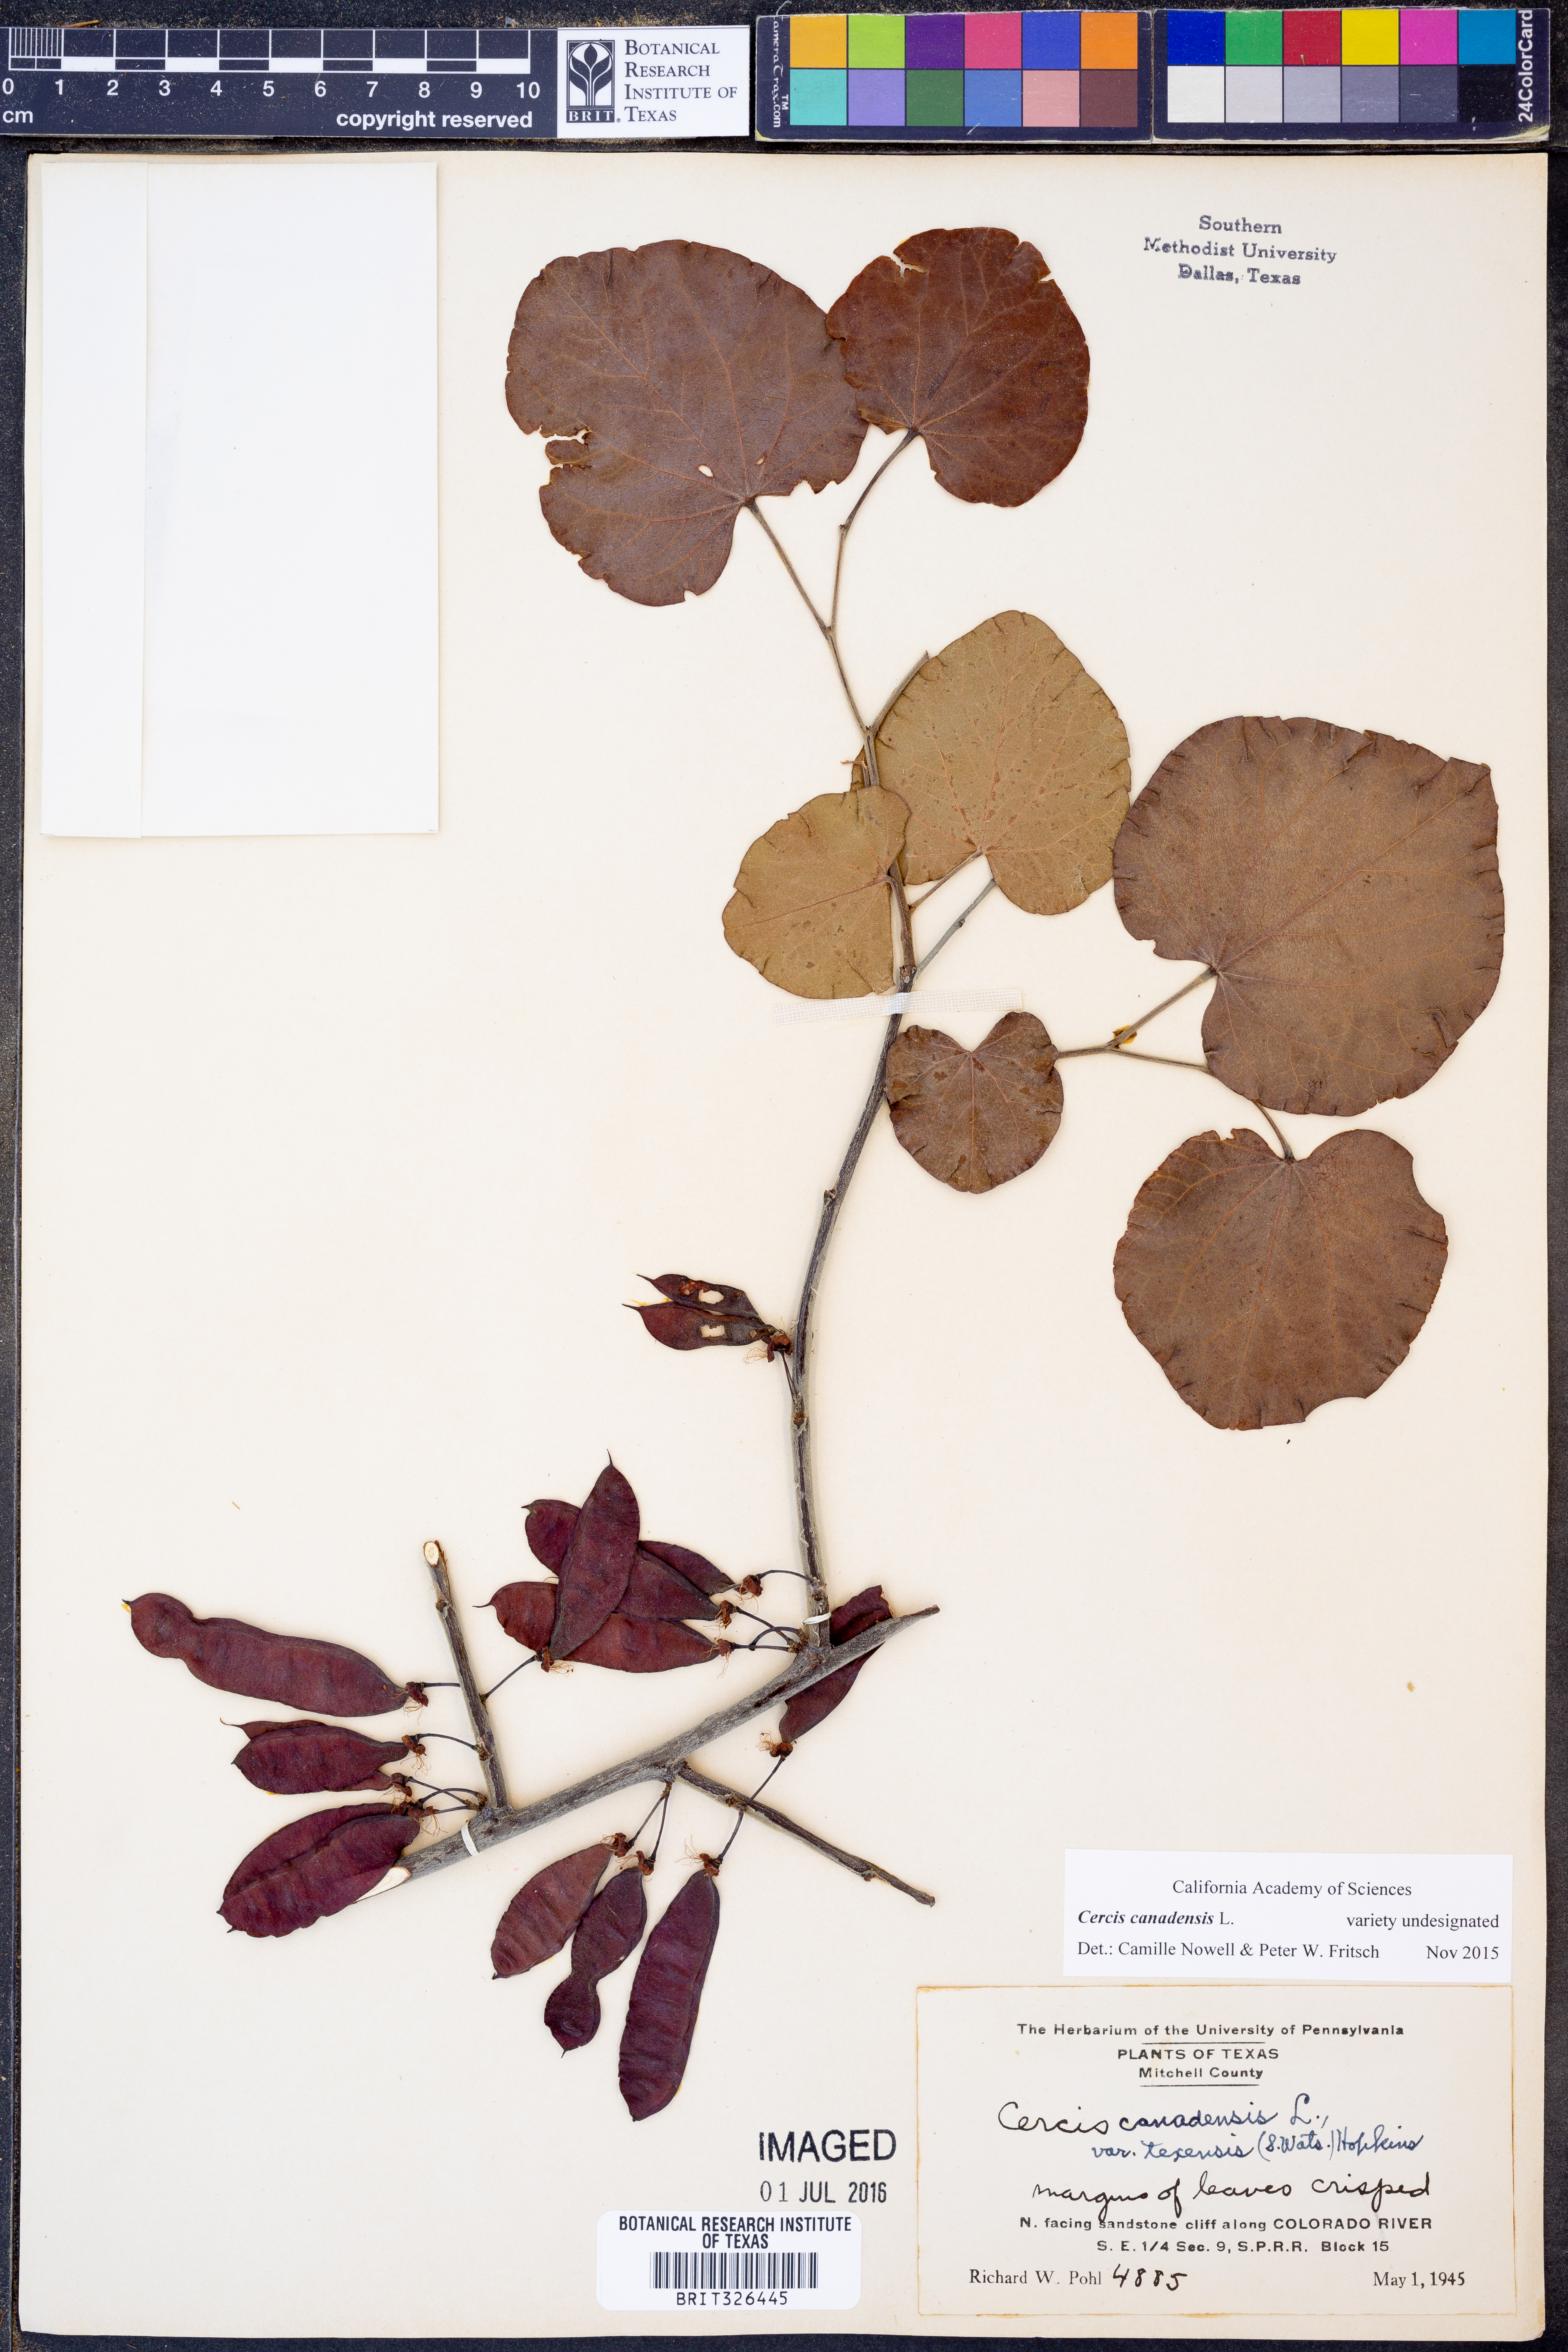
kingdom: Plantae
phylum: Tracheophyta
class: Magnoliopsida
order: Fabales
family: Fabaceae
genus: Cercis
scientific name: Cercis canadensis
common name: Eastern redbud
